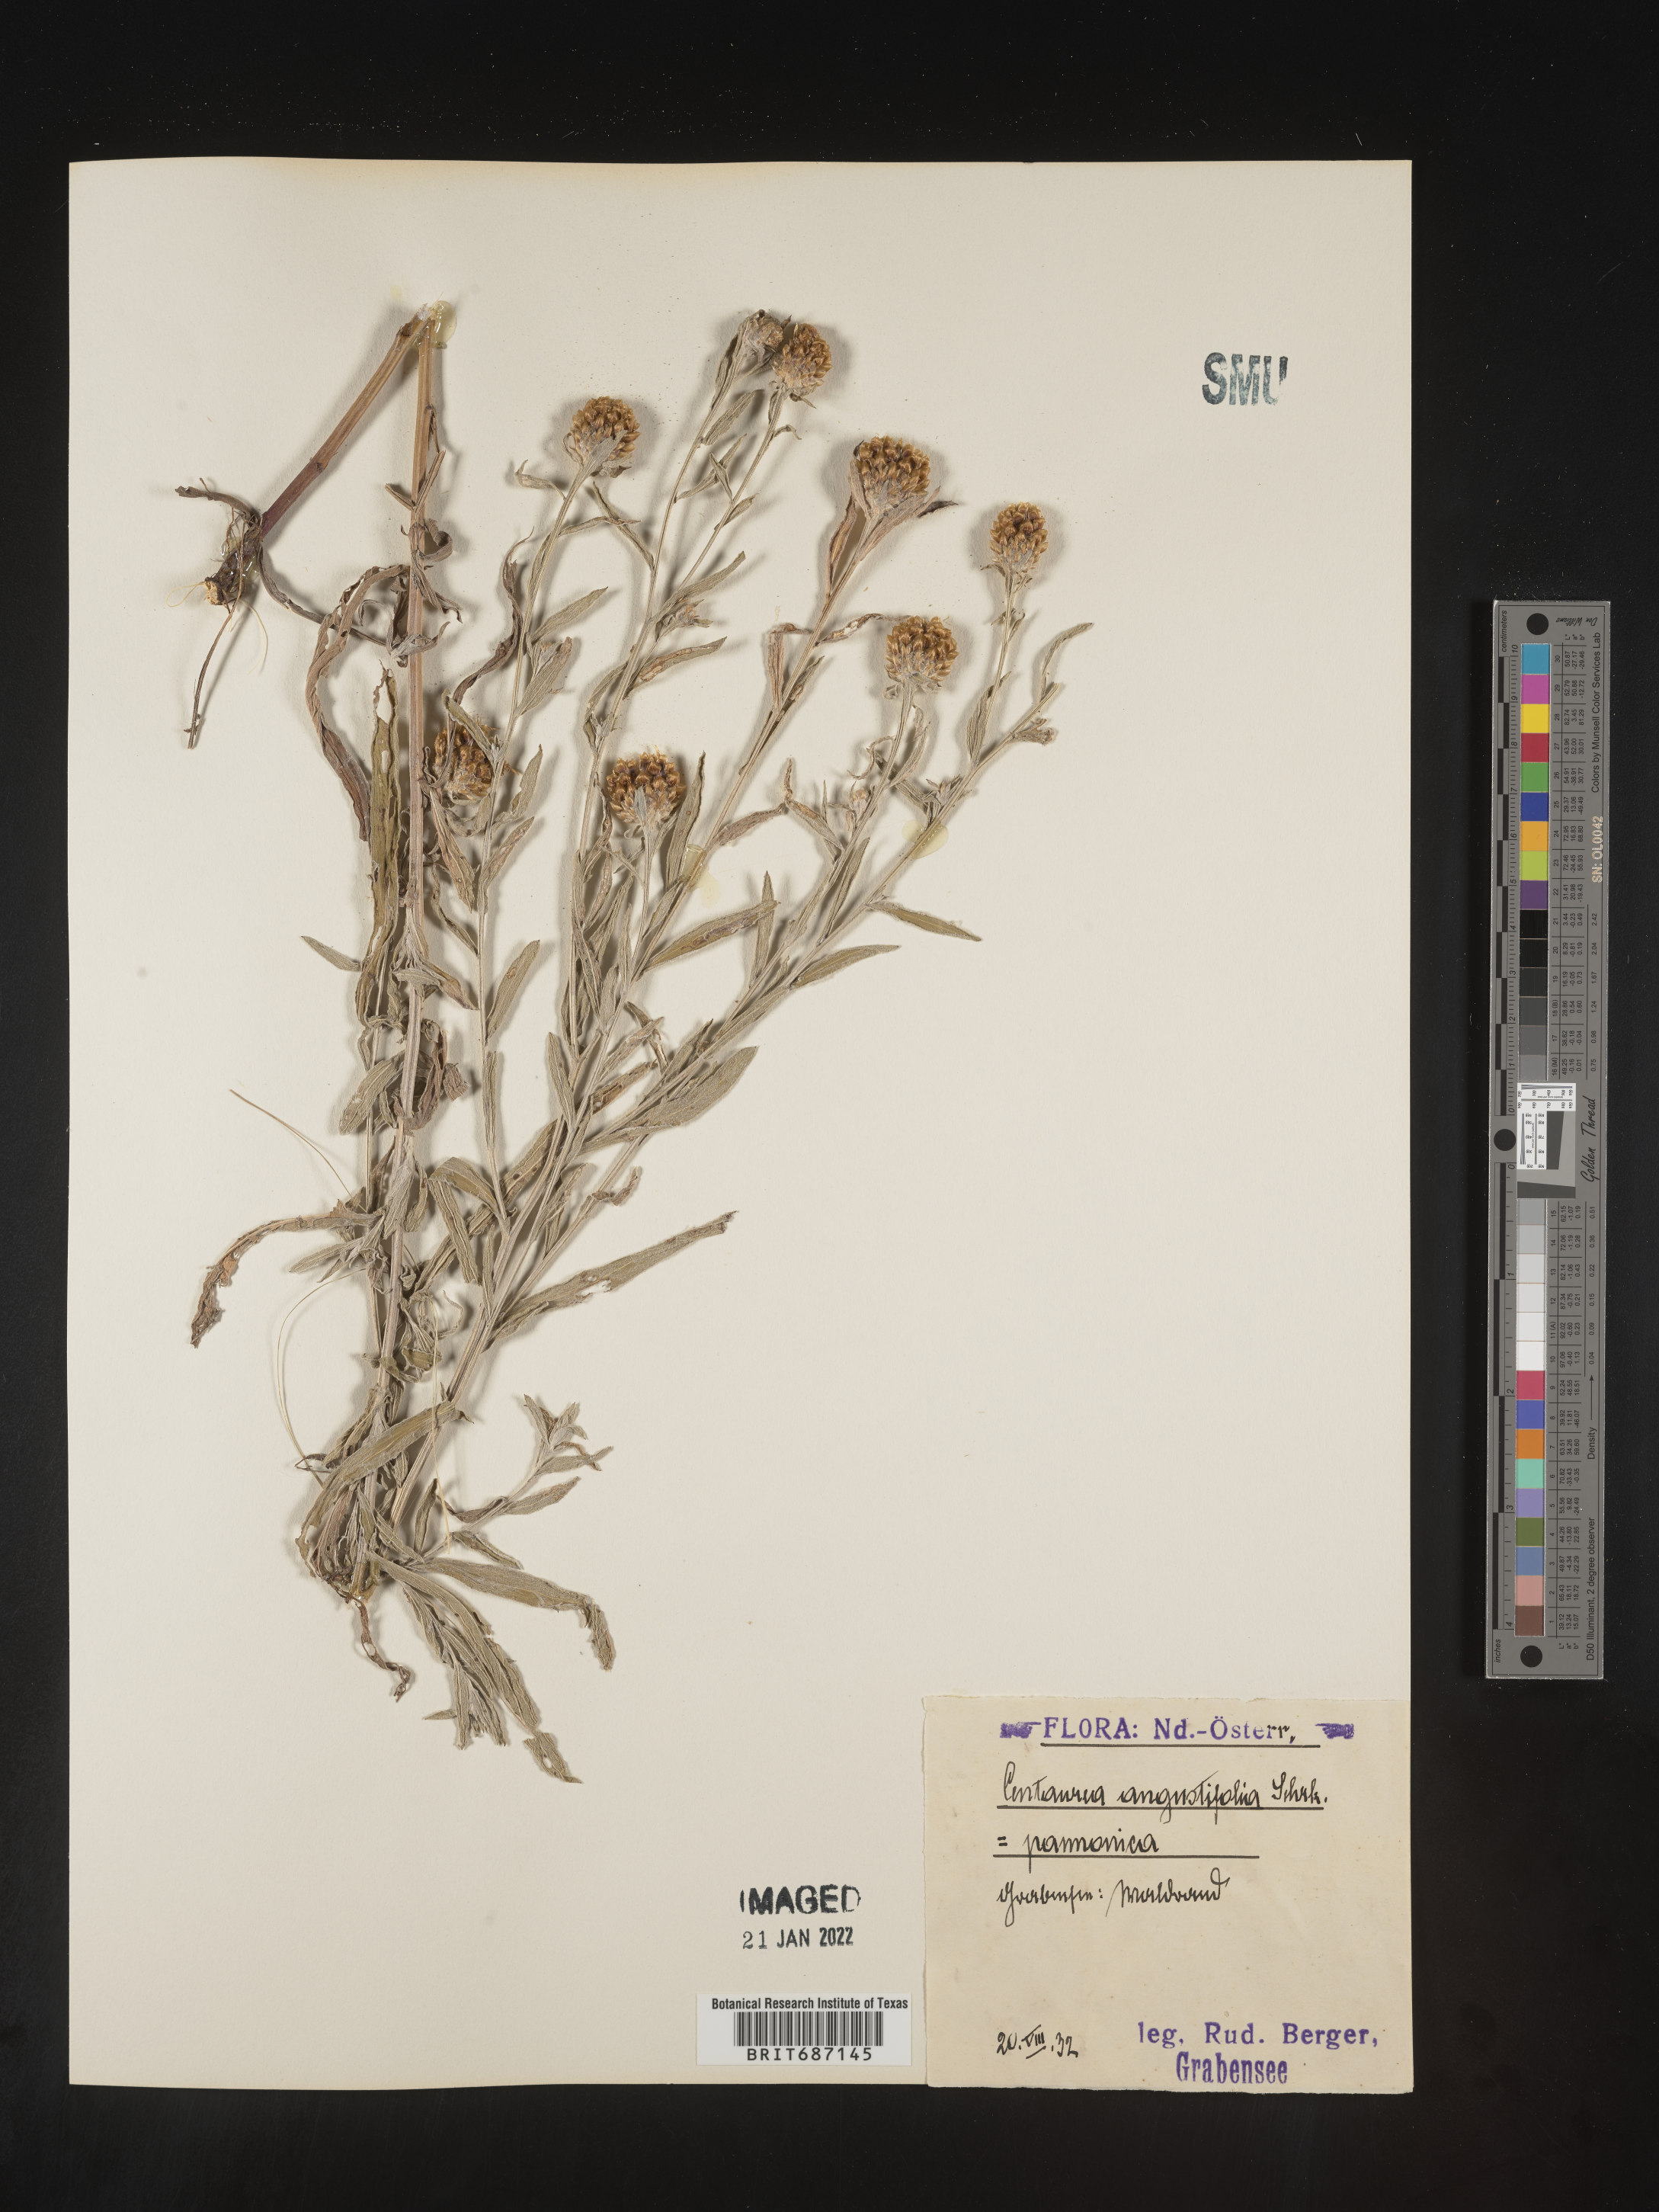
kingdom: Plantae
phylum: Tracheophyta
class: Magnoliopsida
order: Asterales
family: Asteraceae
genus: Centaurea
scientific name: Centaurea
